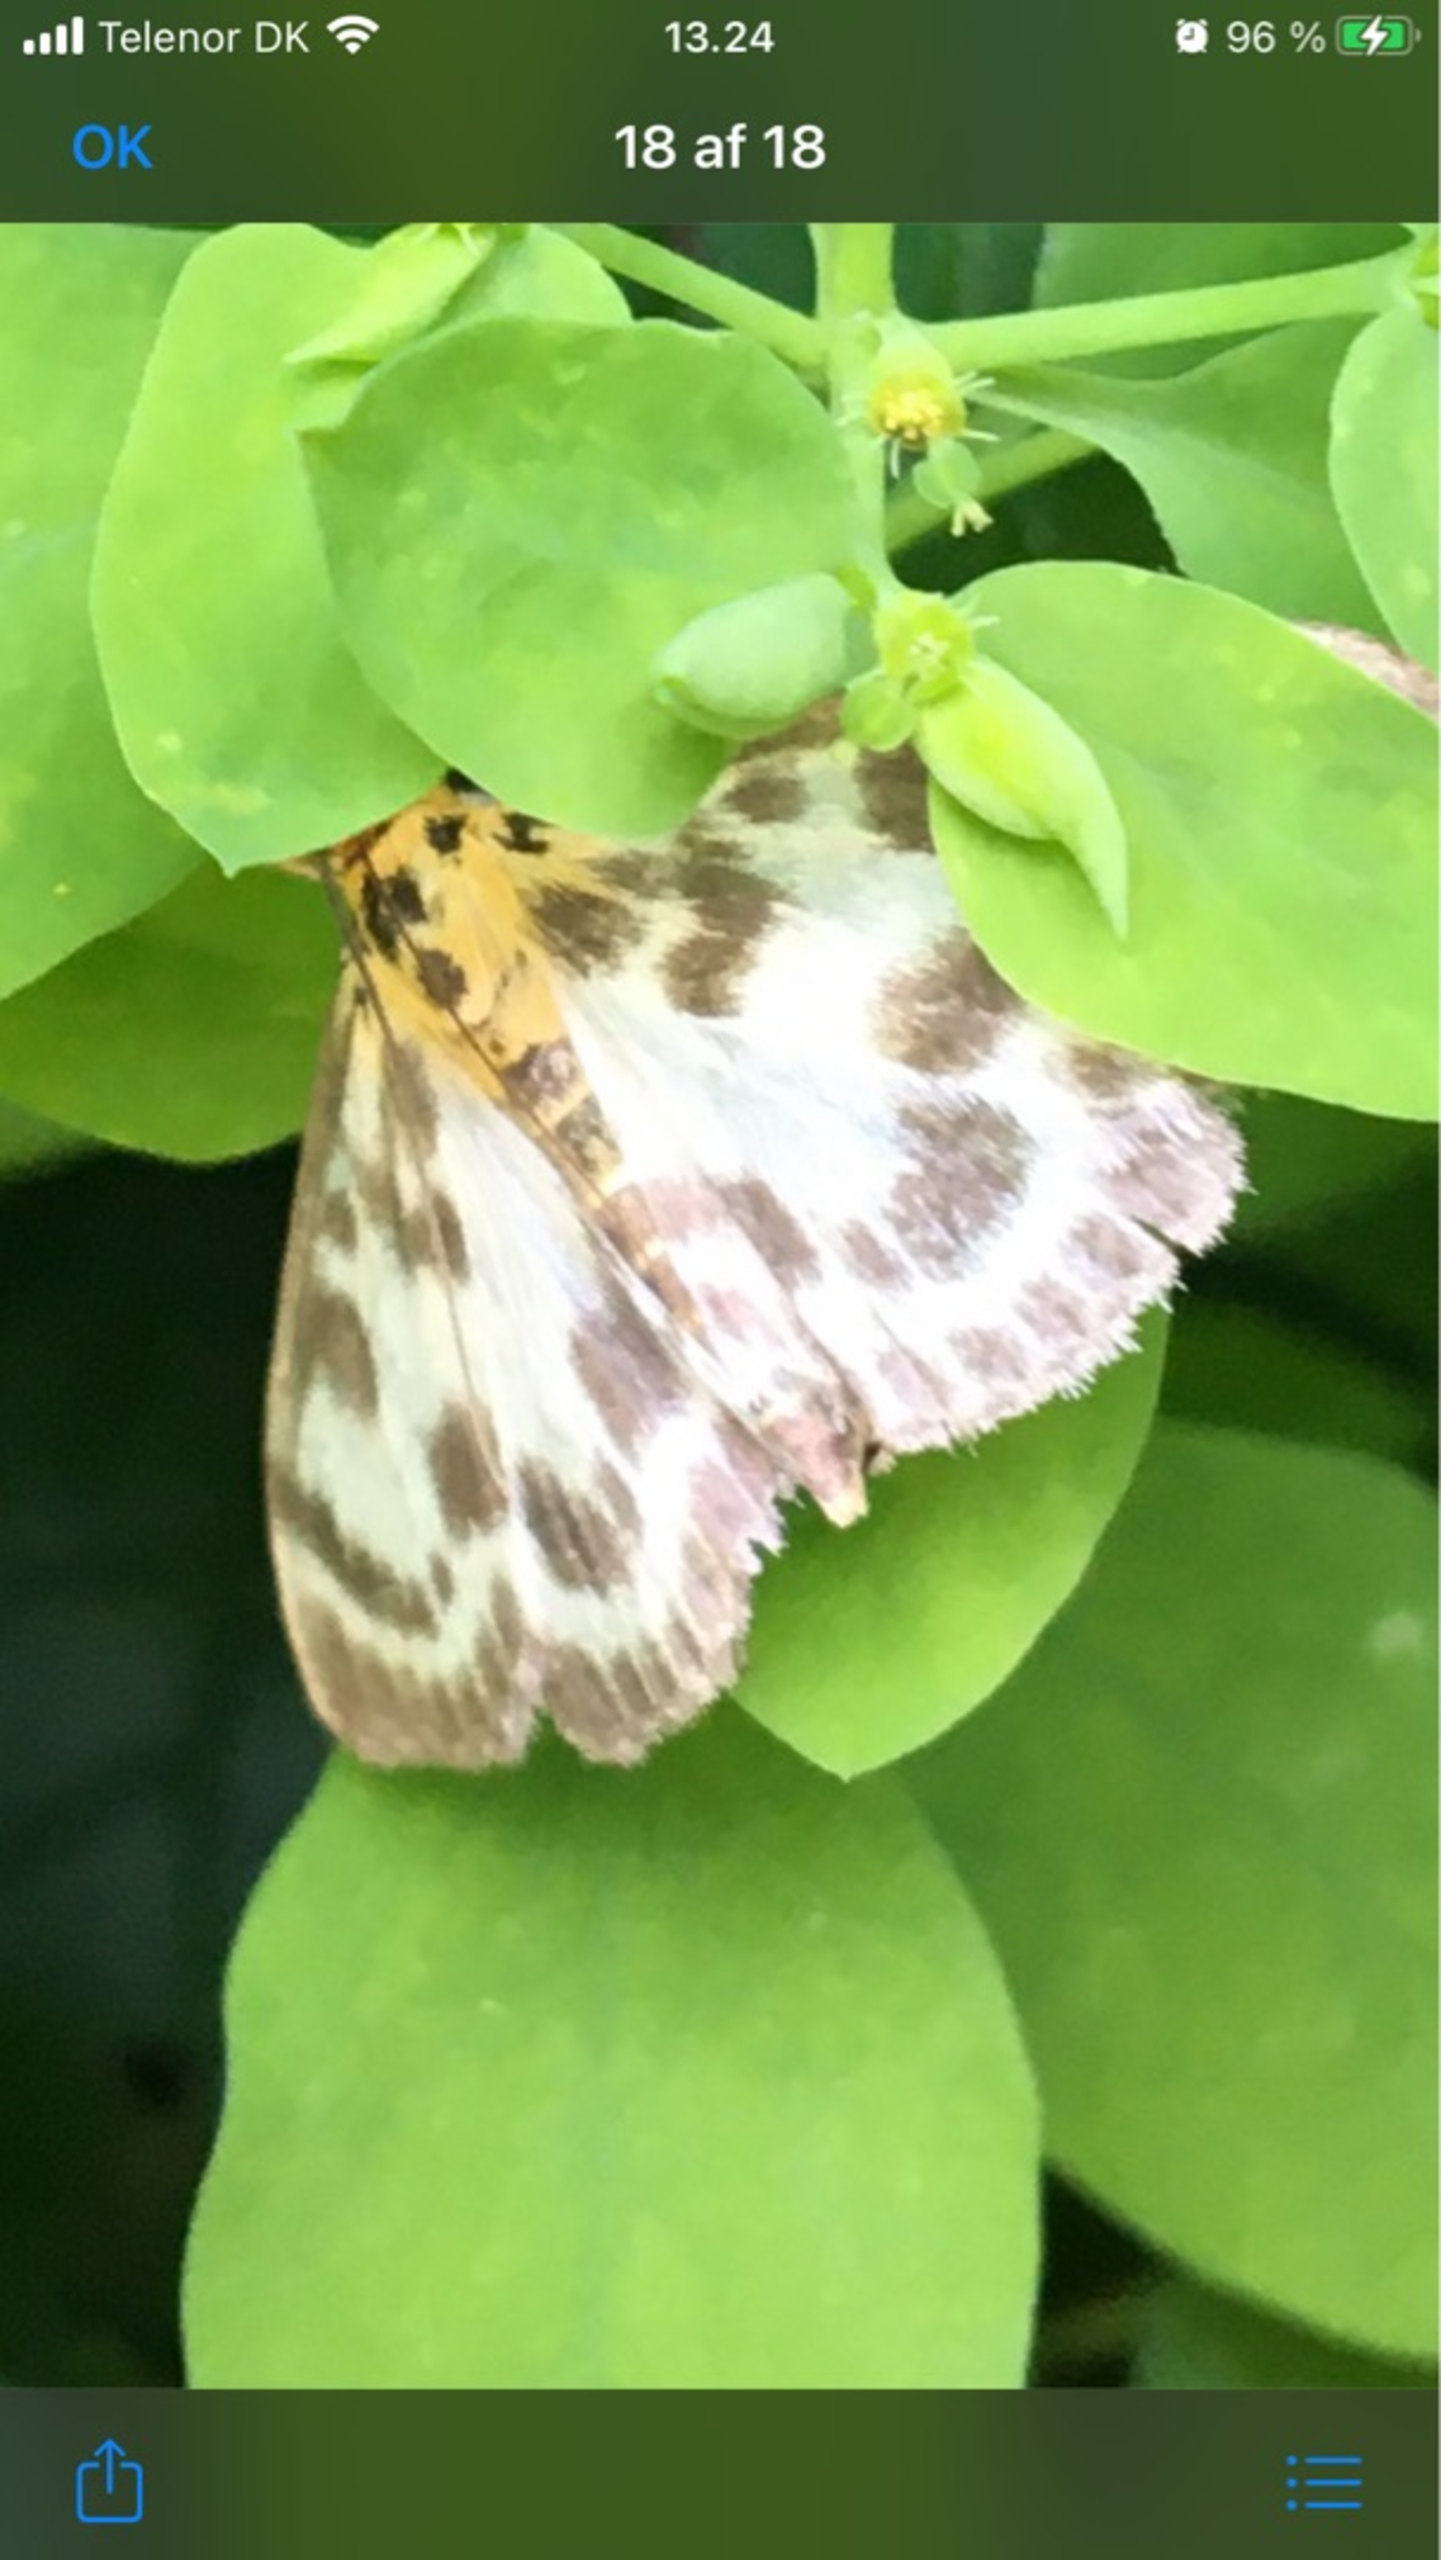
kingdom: Animalia
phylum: Arthropoda
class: Insecta
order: Lepidoptera
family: Crambidae
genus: Anania
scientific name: Anania hortulata
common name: Nældehalvmøl
